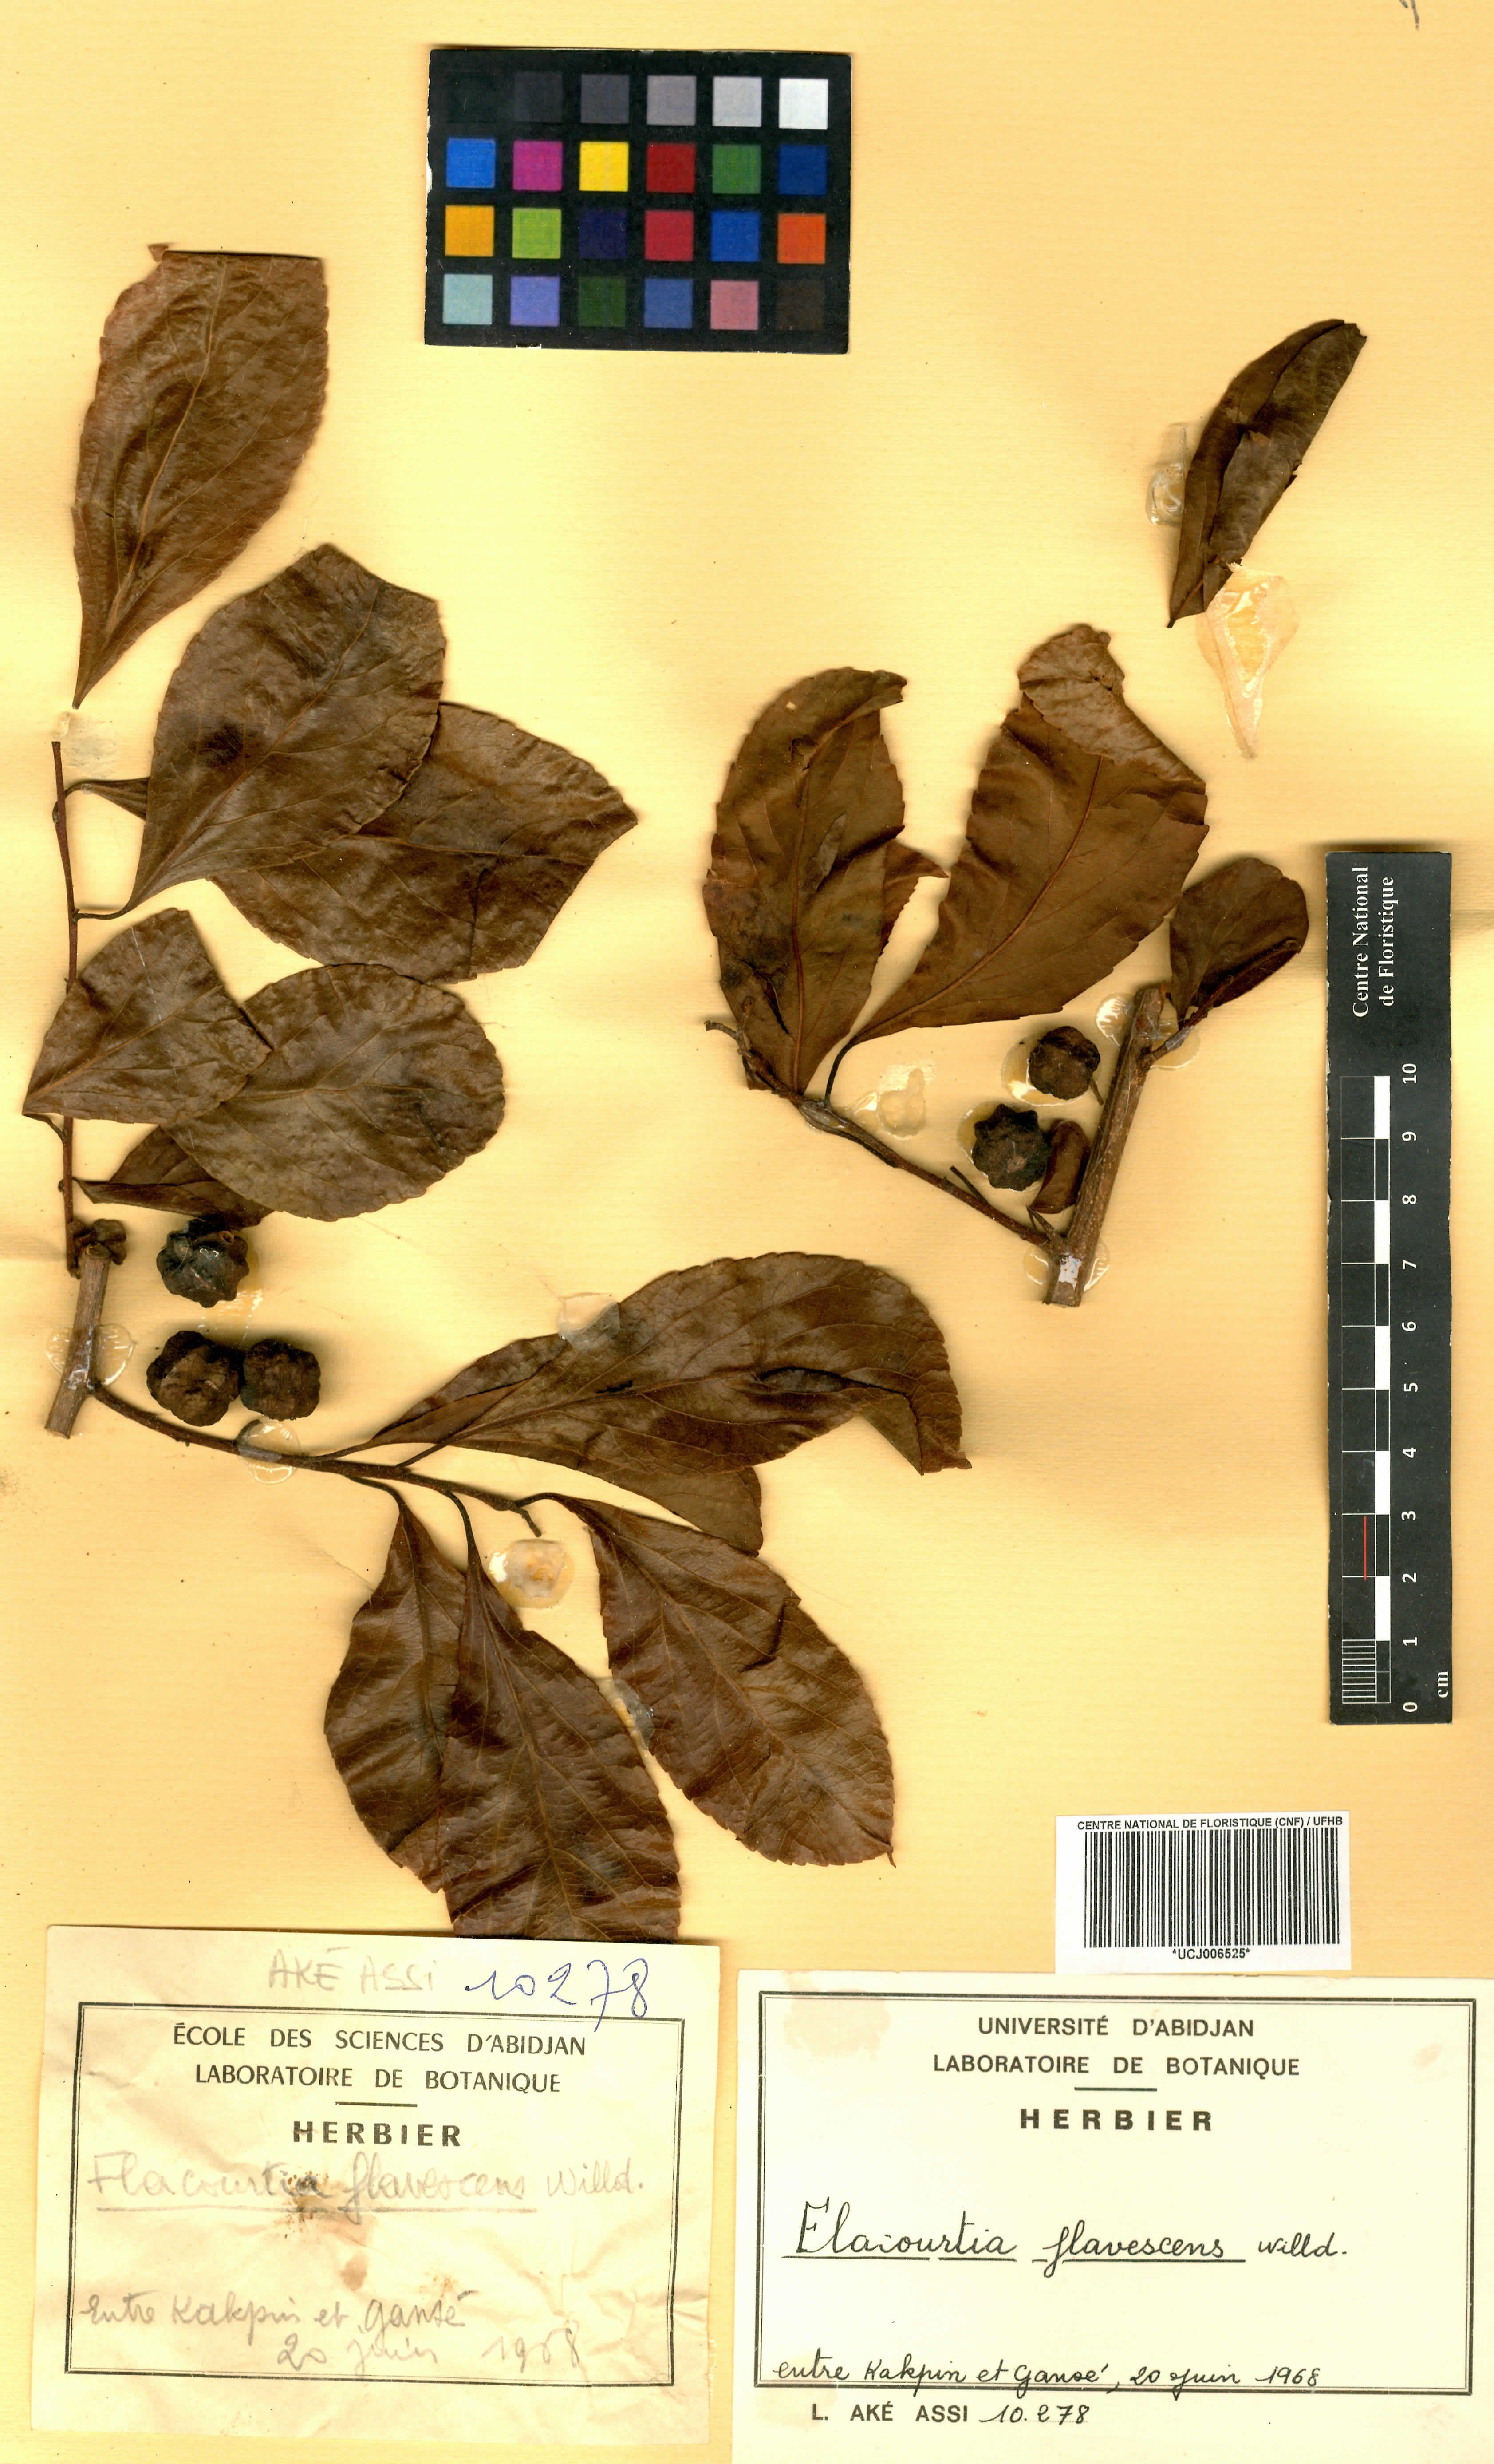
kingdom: Plantae
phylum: Tracheophyta
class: Magnoliopsida
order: Malpighiales
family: Salicaceae
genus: Flacourtia
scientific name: Flacourtia indica
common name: Governor's plum
